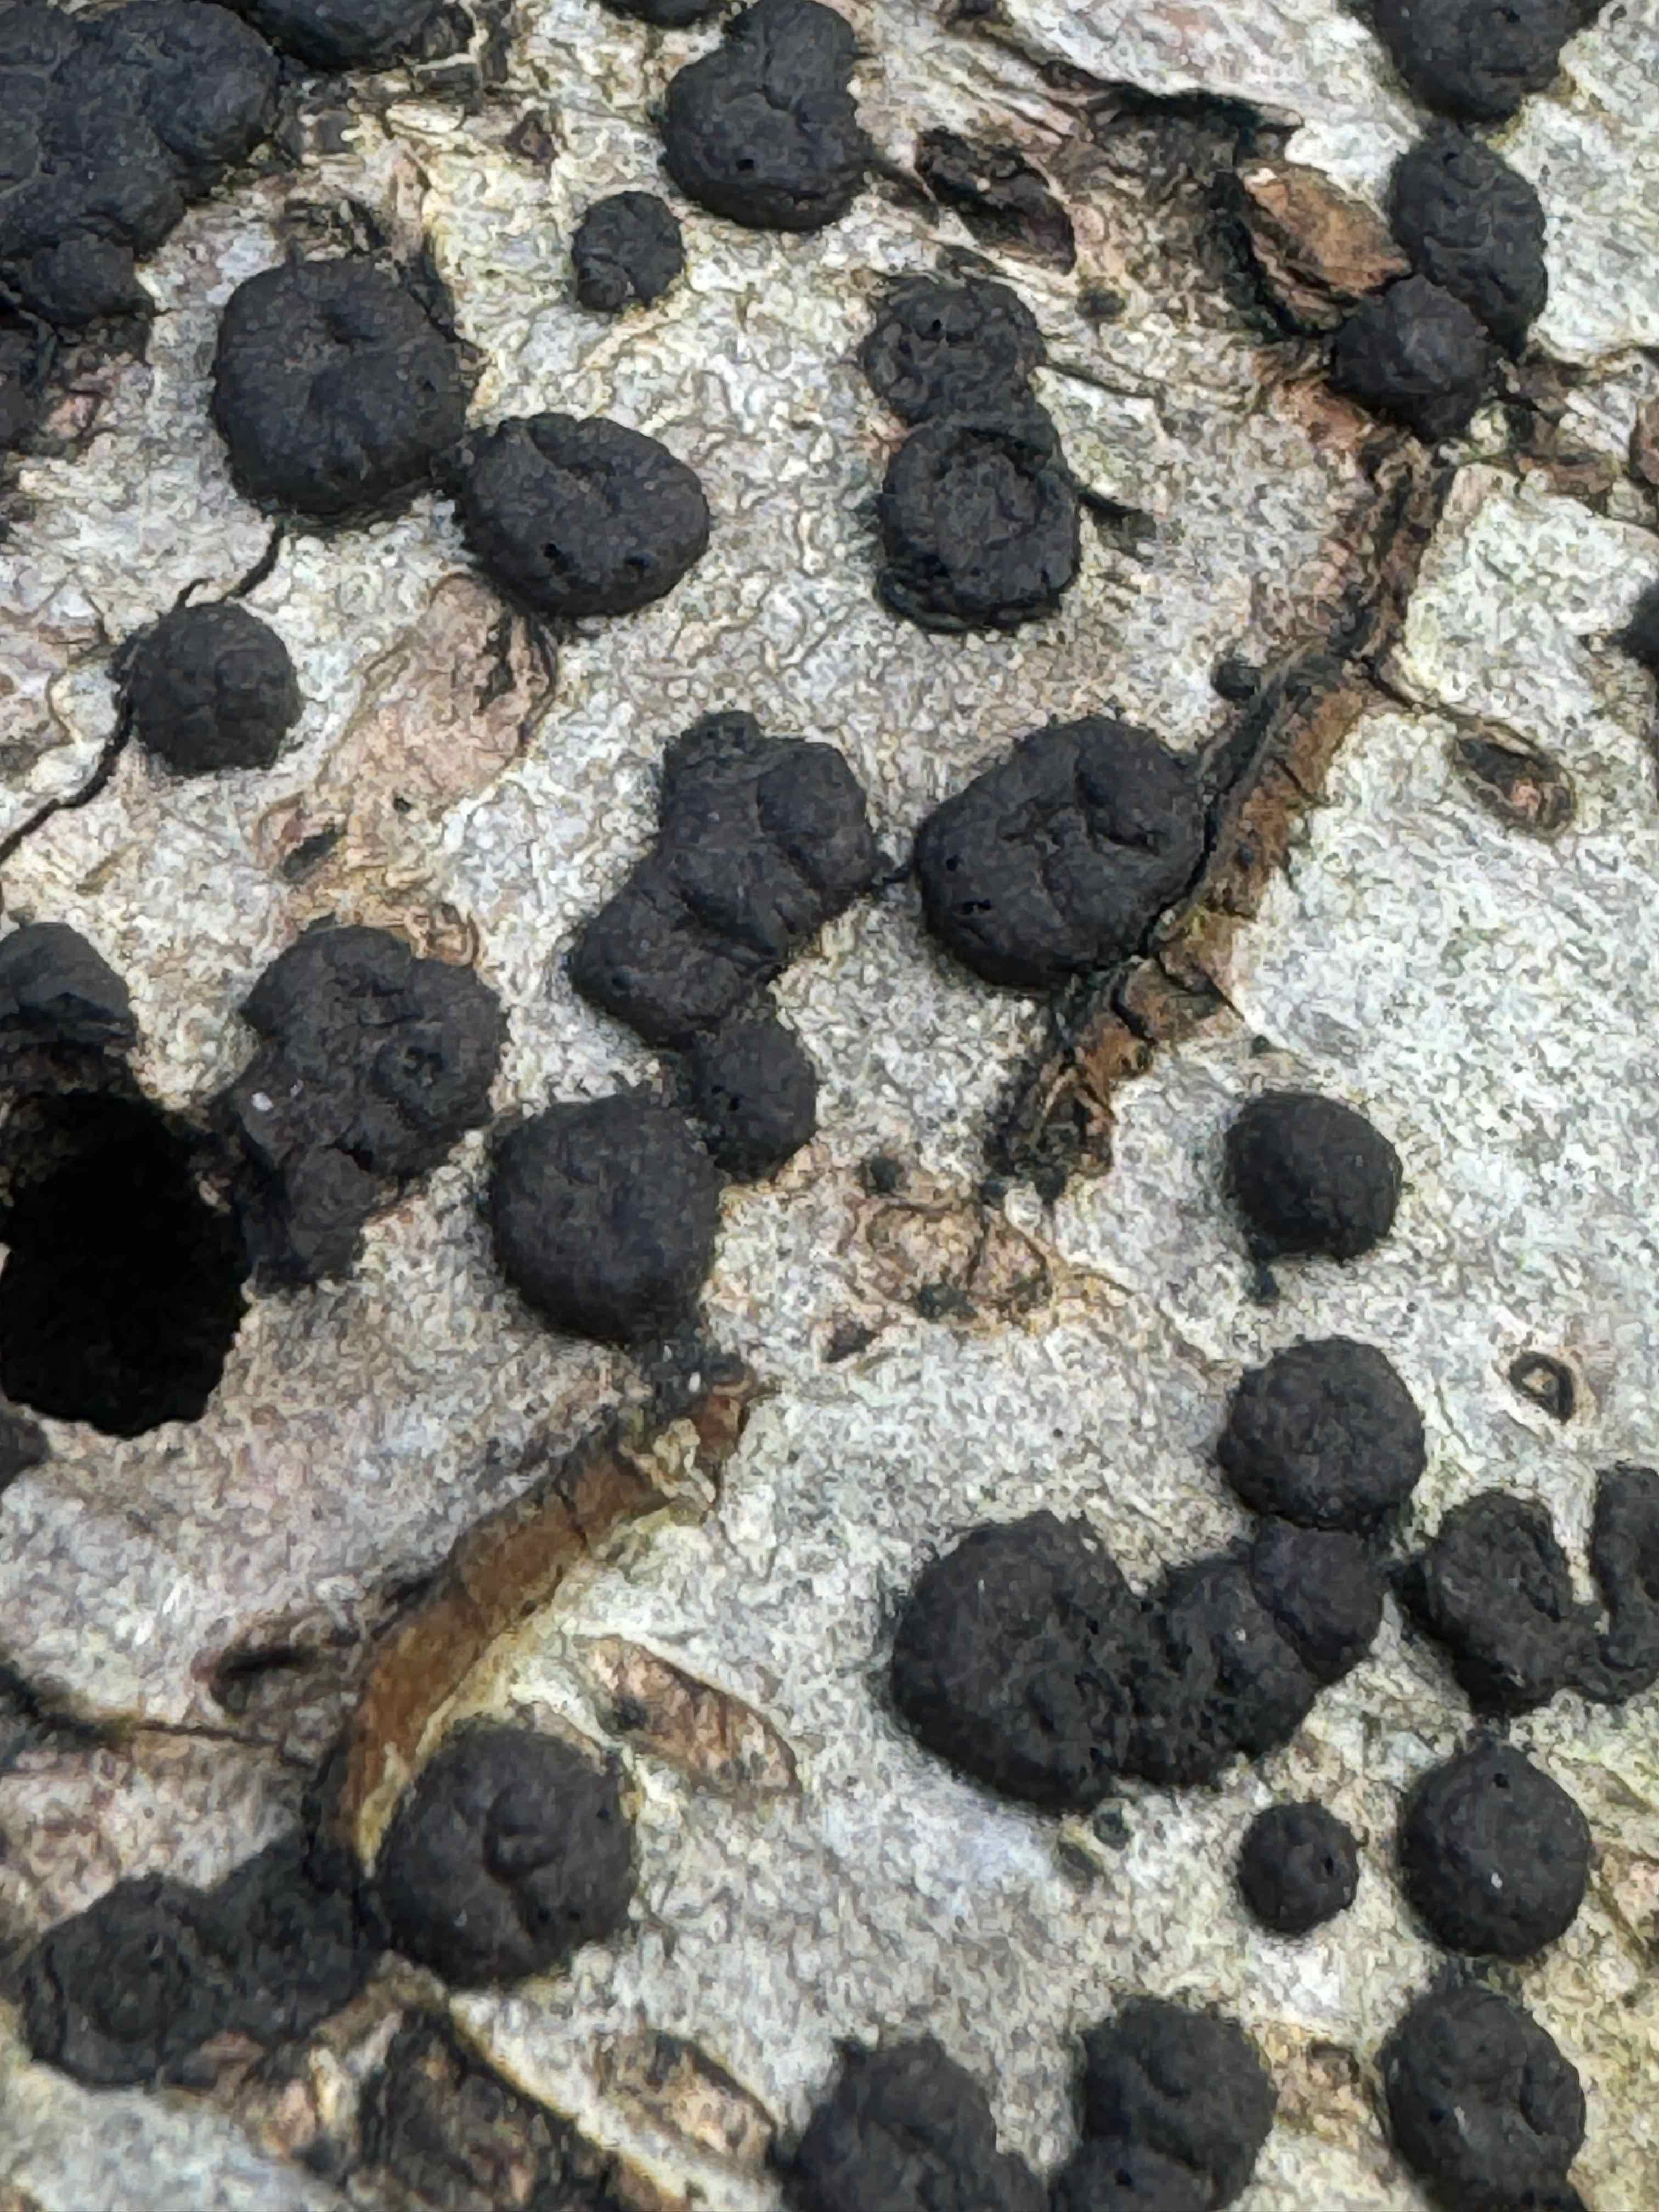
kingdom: Fungi
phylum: Ascomycota
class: Sordariomycetes
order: Xylariales
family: Hypoxylaceae
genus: Hypoxylon
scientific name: Hypoxylon fuscum
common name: kegleformet kulbær
